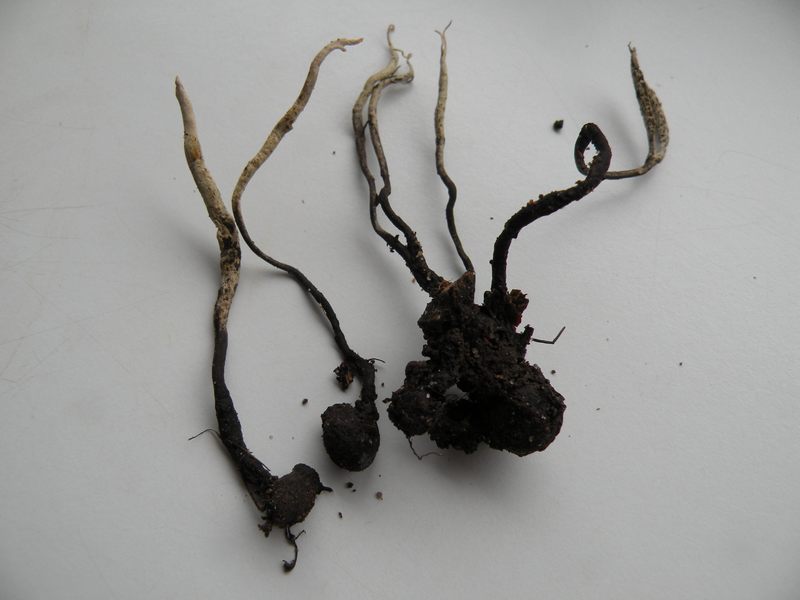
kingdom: Fungi
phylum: Ascomycota
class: Sordariomycetes
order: Xylariales
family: Xylariaceae
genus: Xylaria
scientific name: Xylaria oxyacanthae
